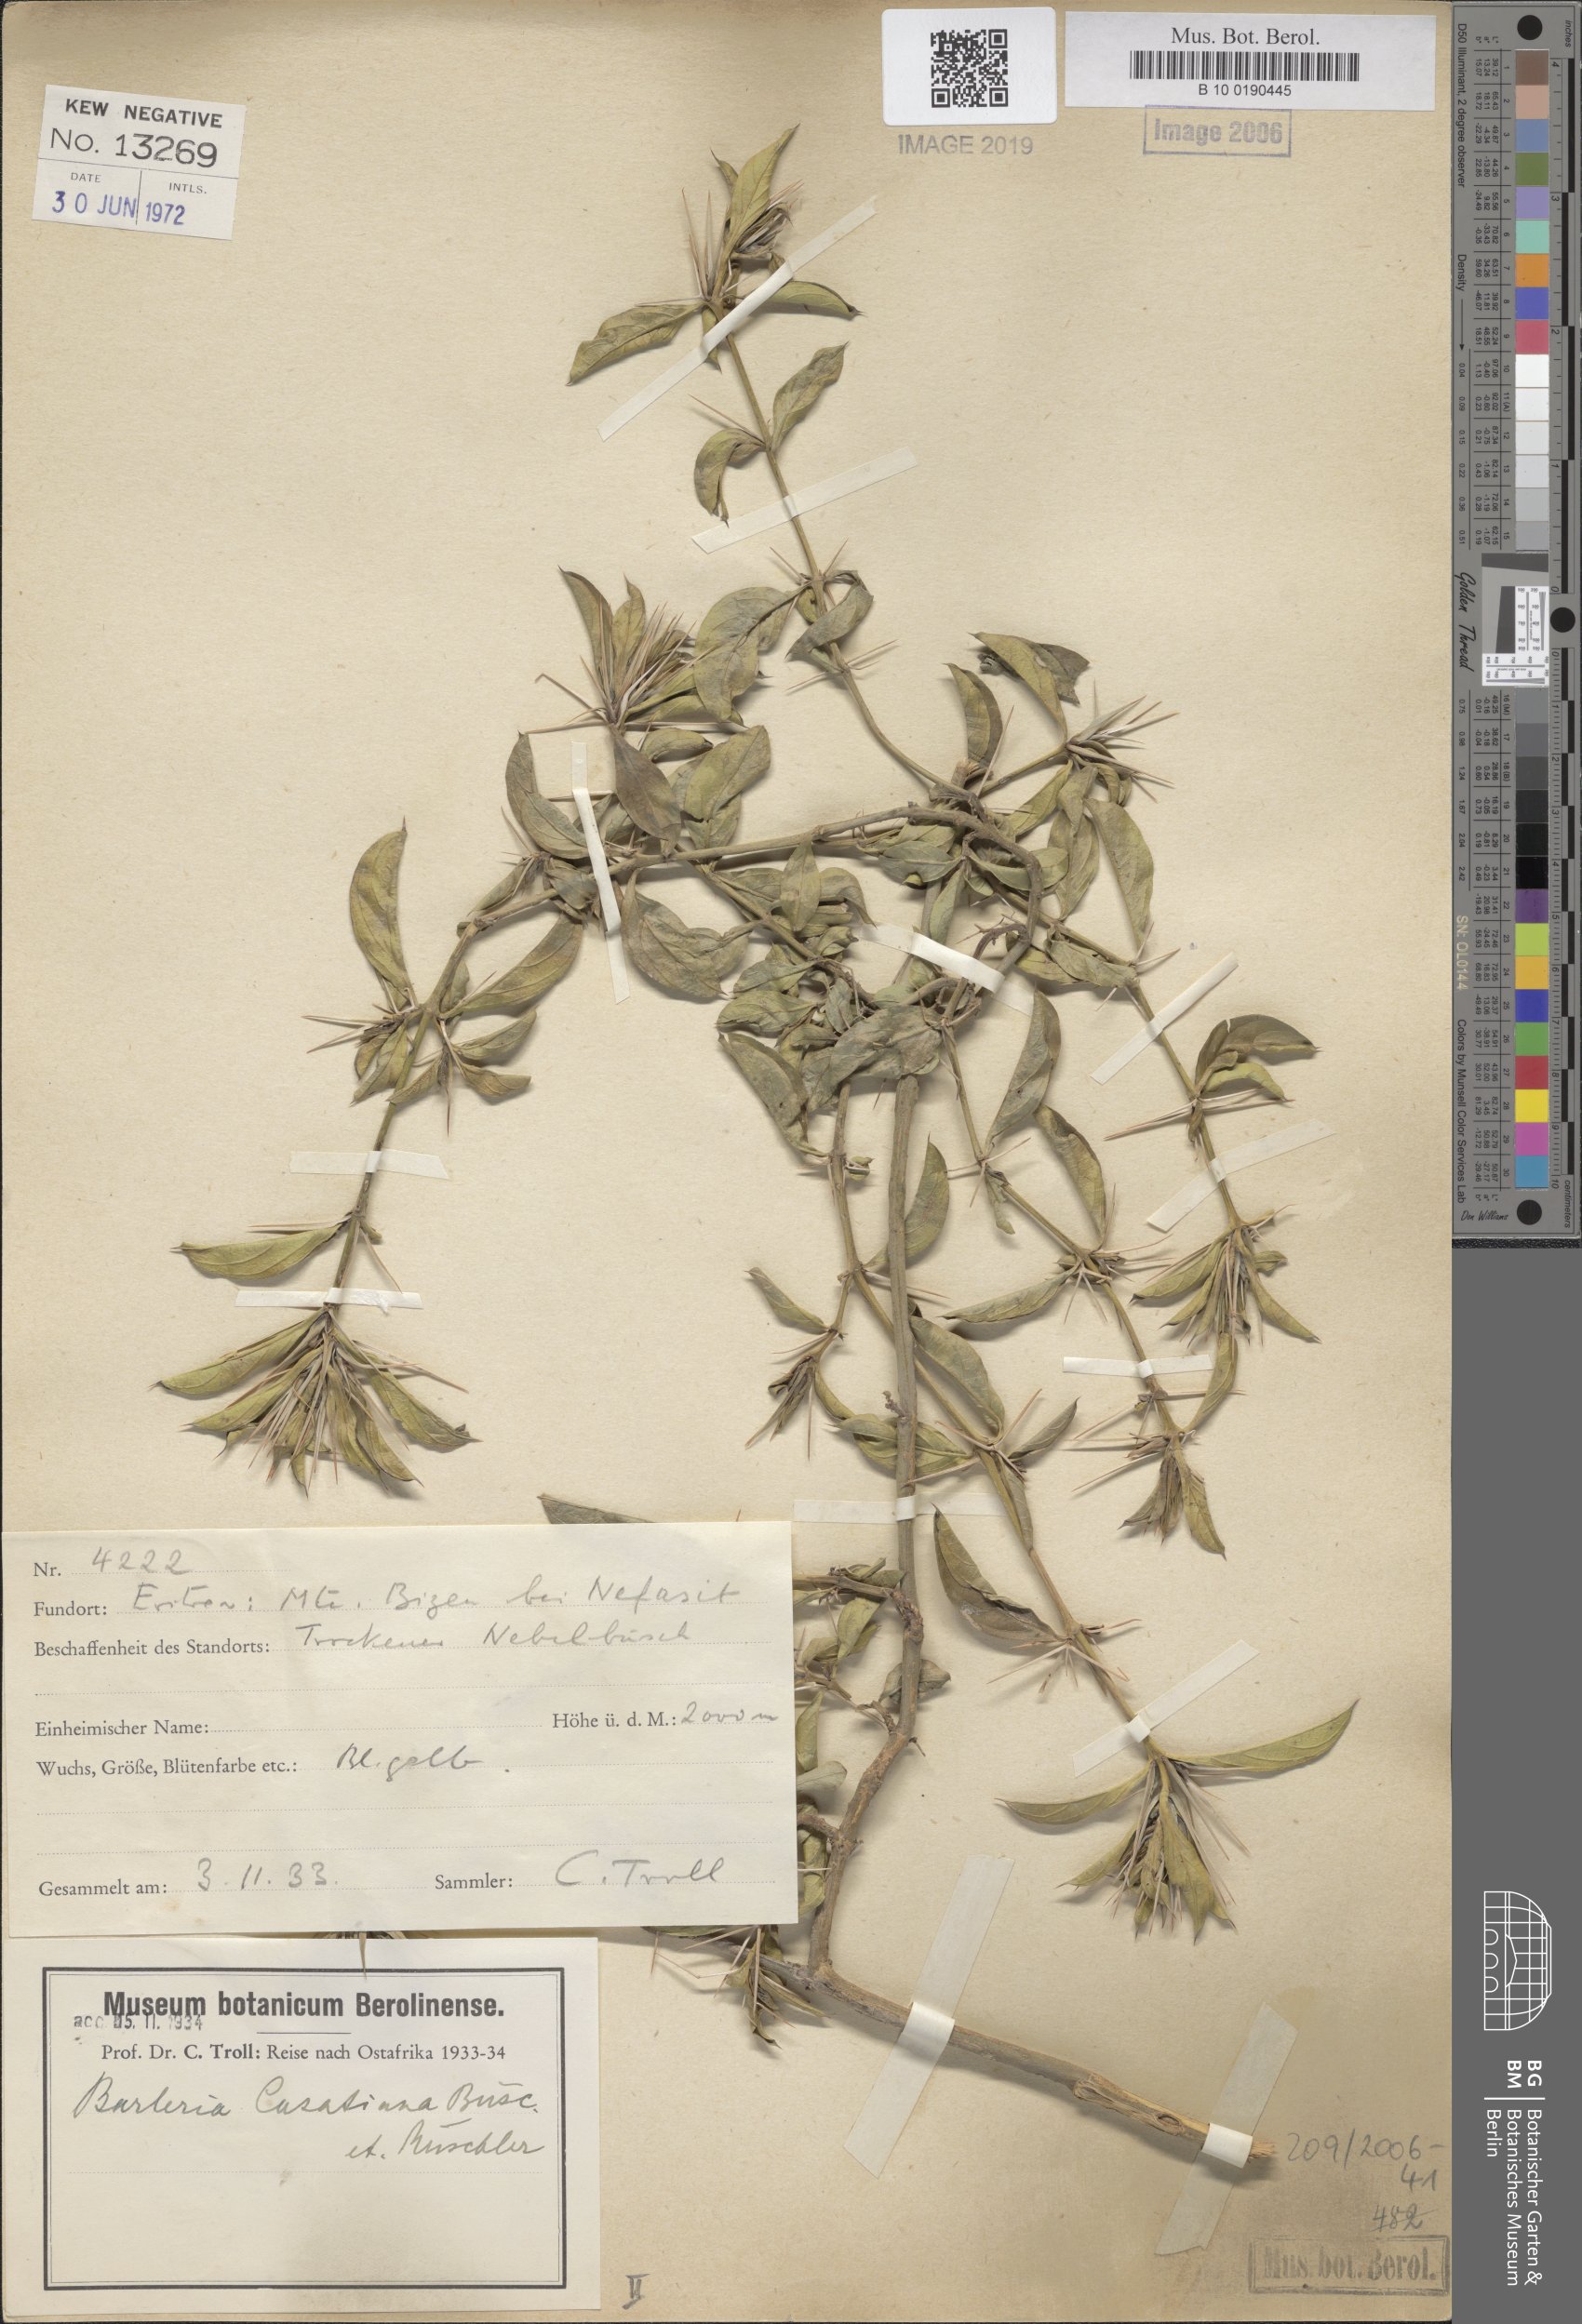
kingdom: Plantae
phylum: Tracheophyta
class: Magnoliopsida
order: Lamiales
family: Acanthaceae
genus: Barleria
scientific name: Barleria casatiana
